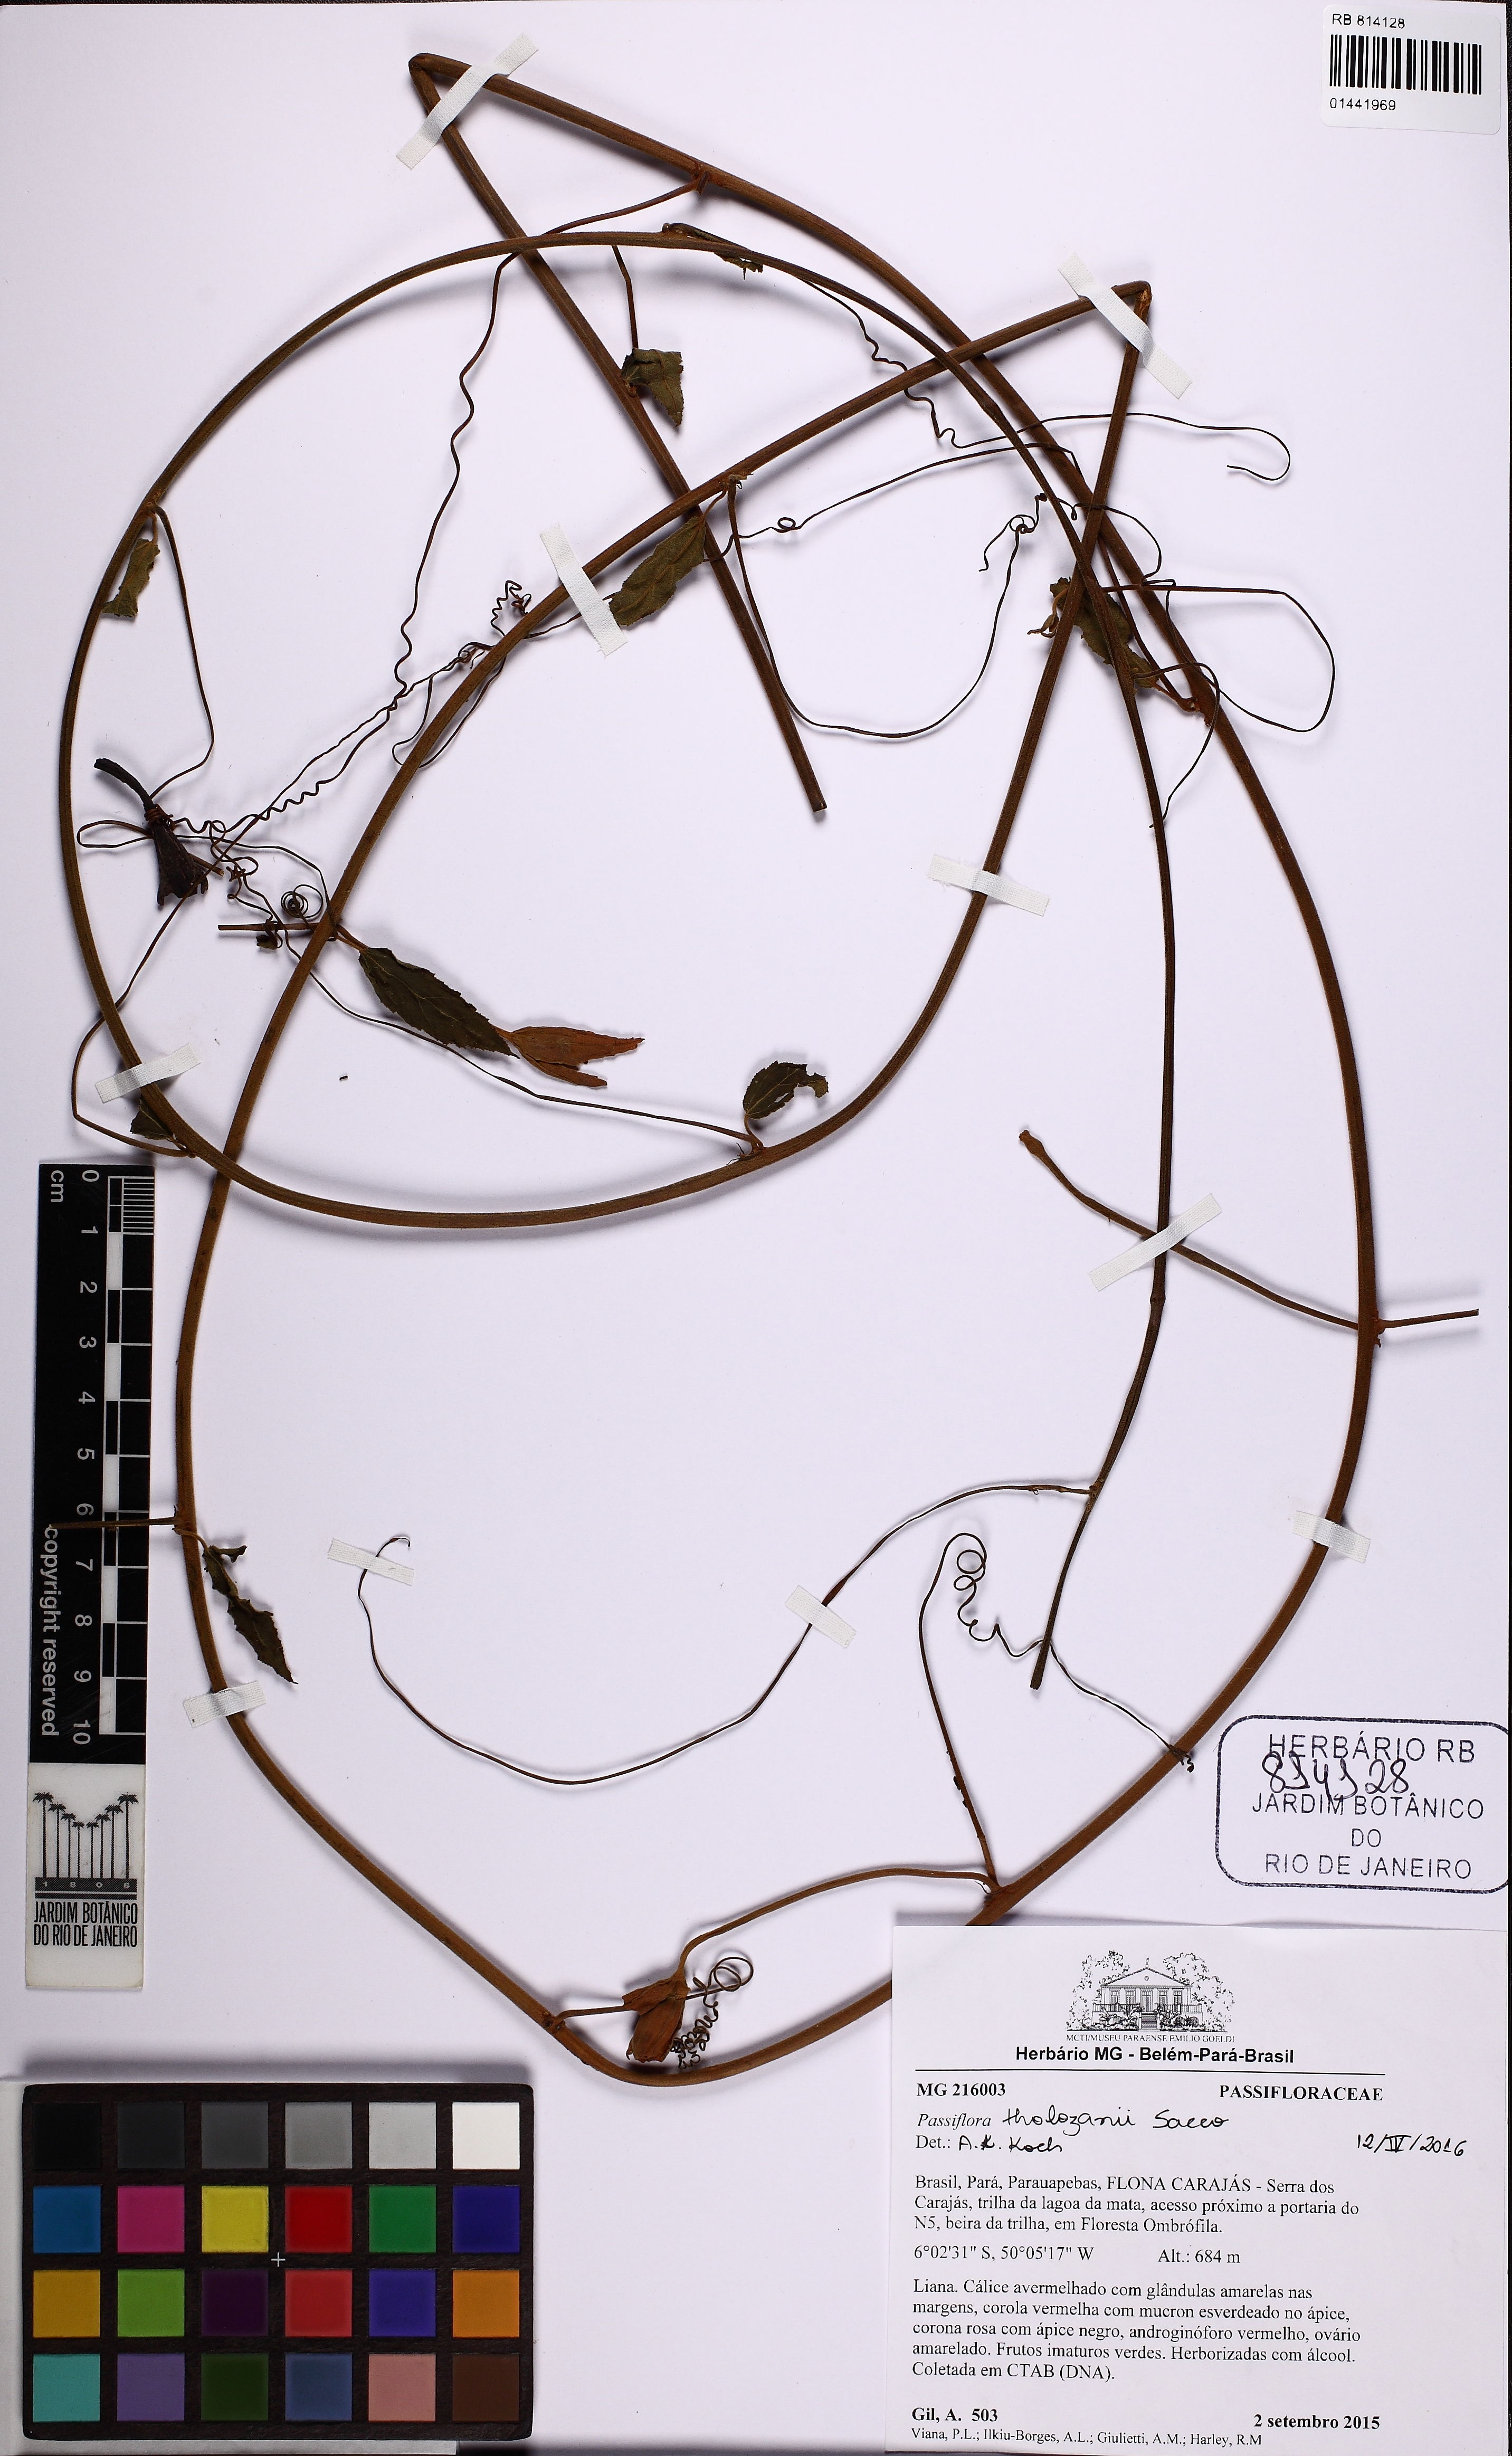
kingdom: Plantae
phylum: Tracheophyta
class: Magnoliopsida
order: Malpighiales
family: Passifloraceae
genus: Passiflora
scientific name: Passiflora tholozanii
